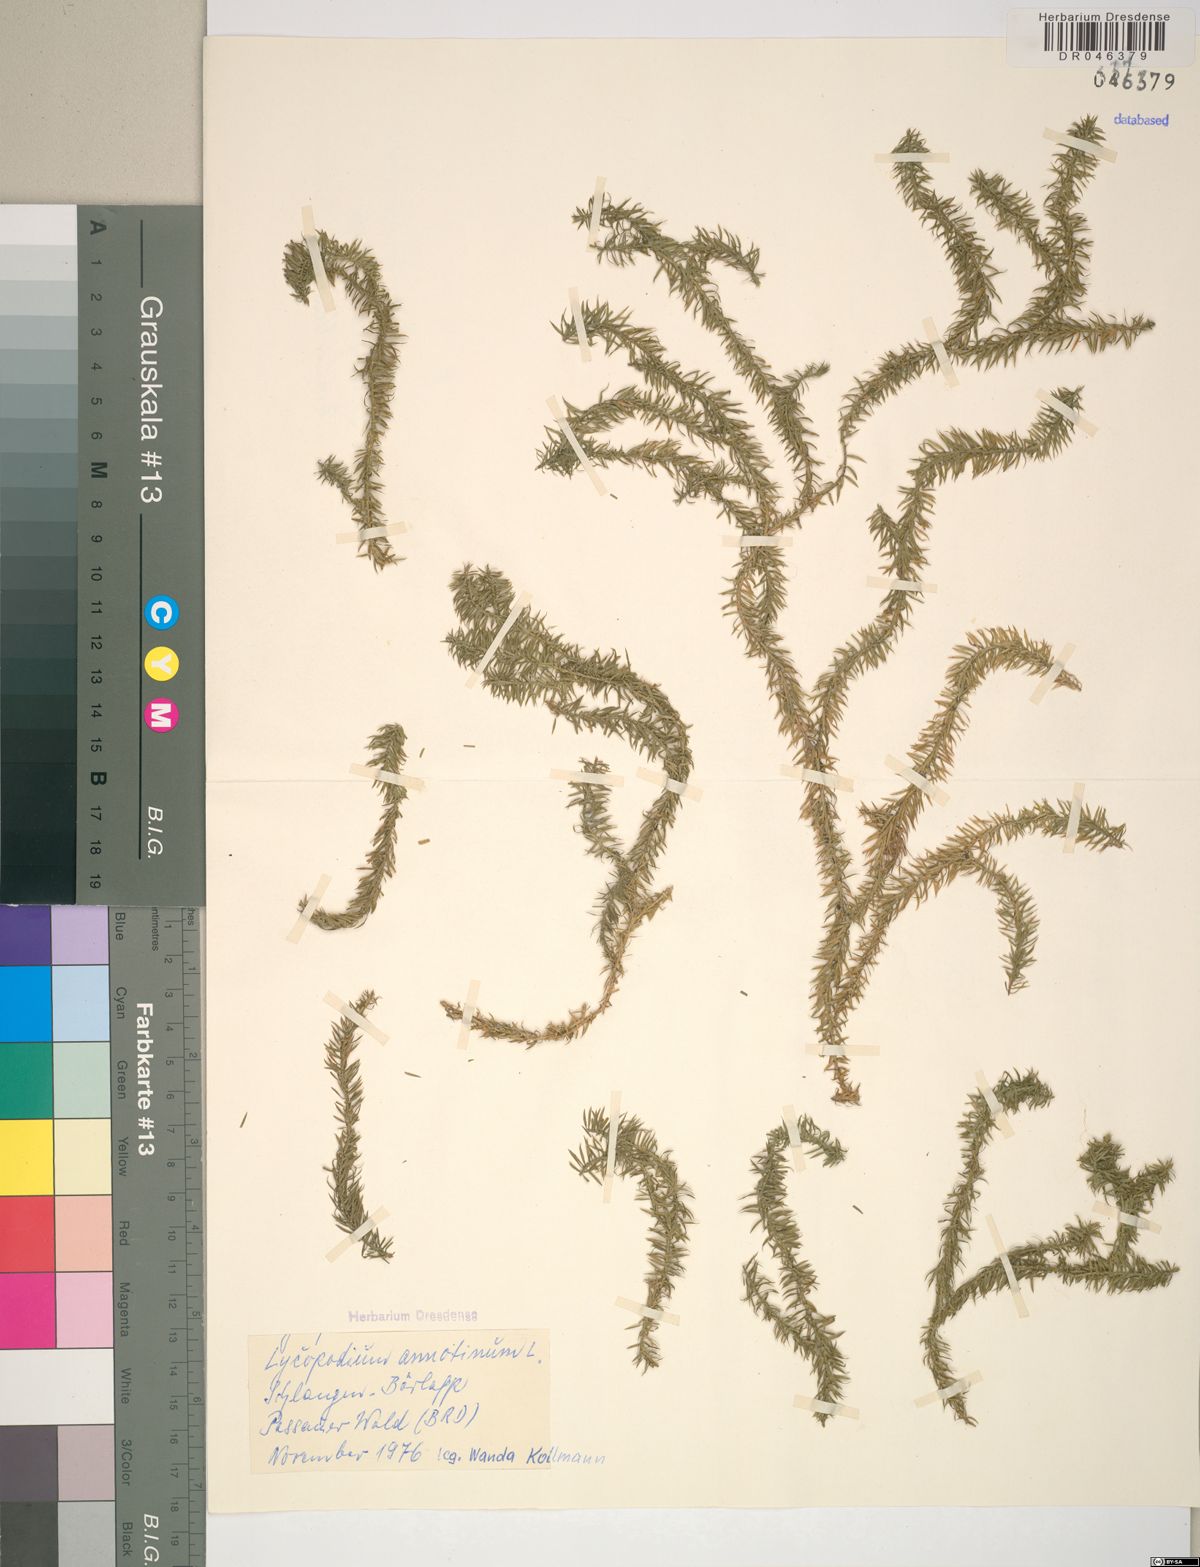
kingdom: Plantae
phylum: Tracheophyta
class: Lycopodiopsida
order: Lycopodiales
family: Lycopodiaceae
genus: Spinulum
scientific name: Spinulum annotinum
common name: Interrupted club-moss
